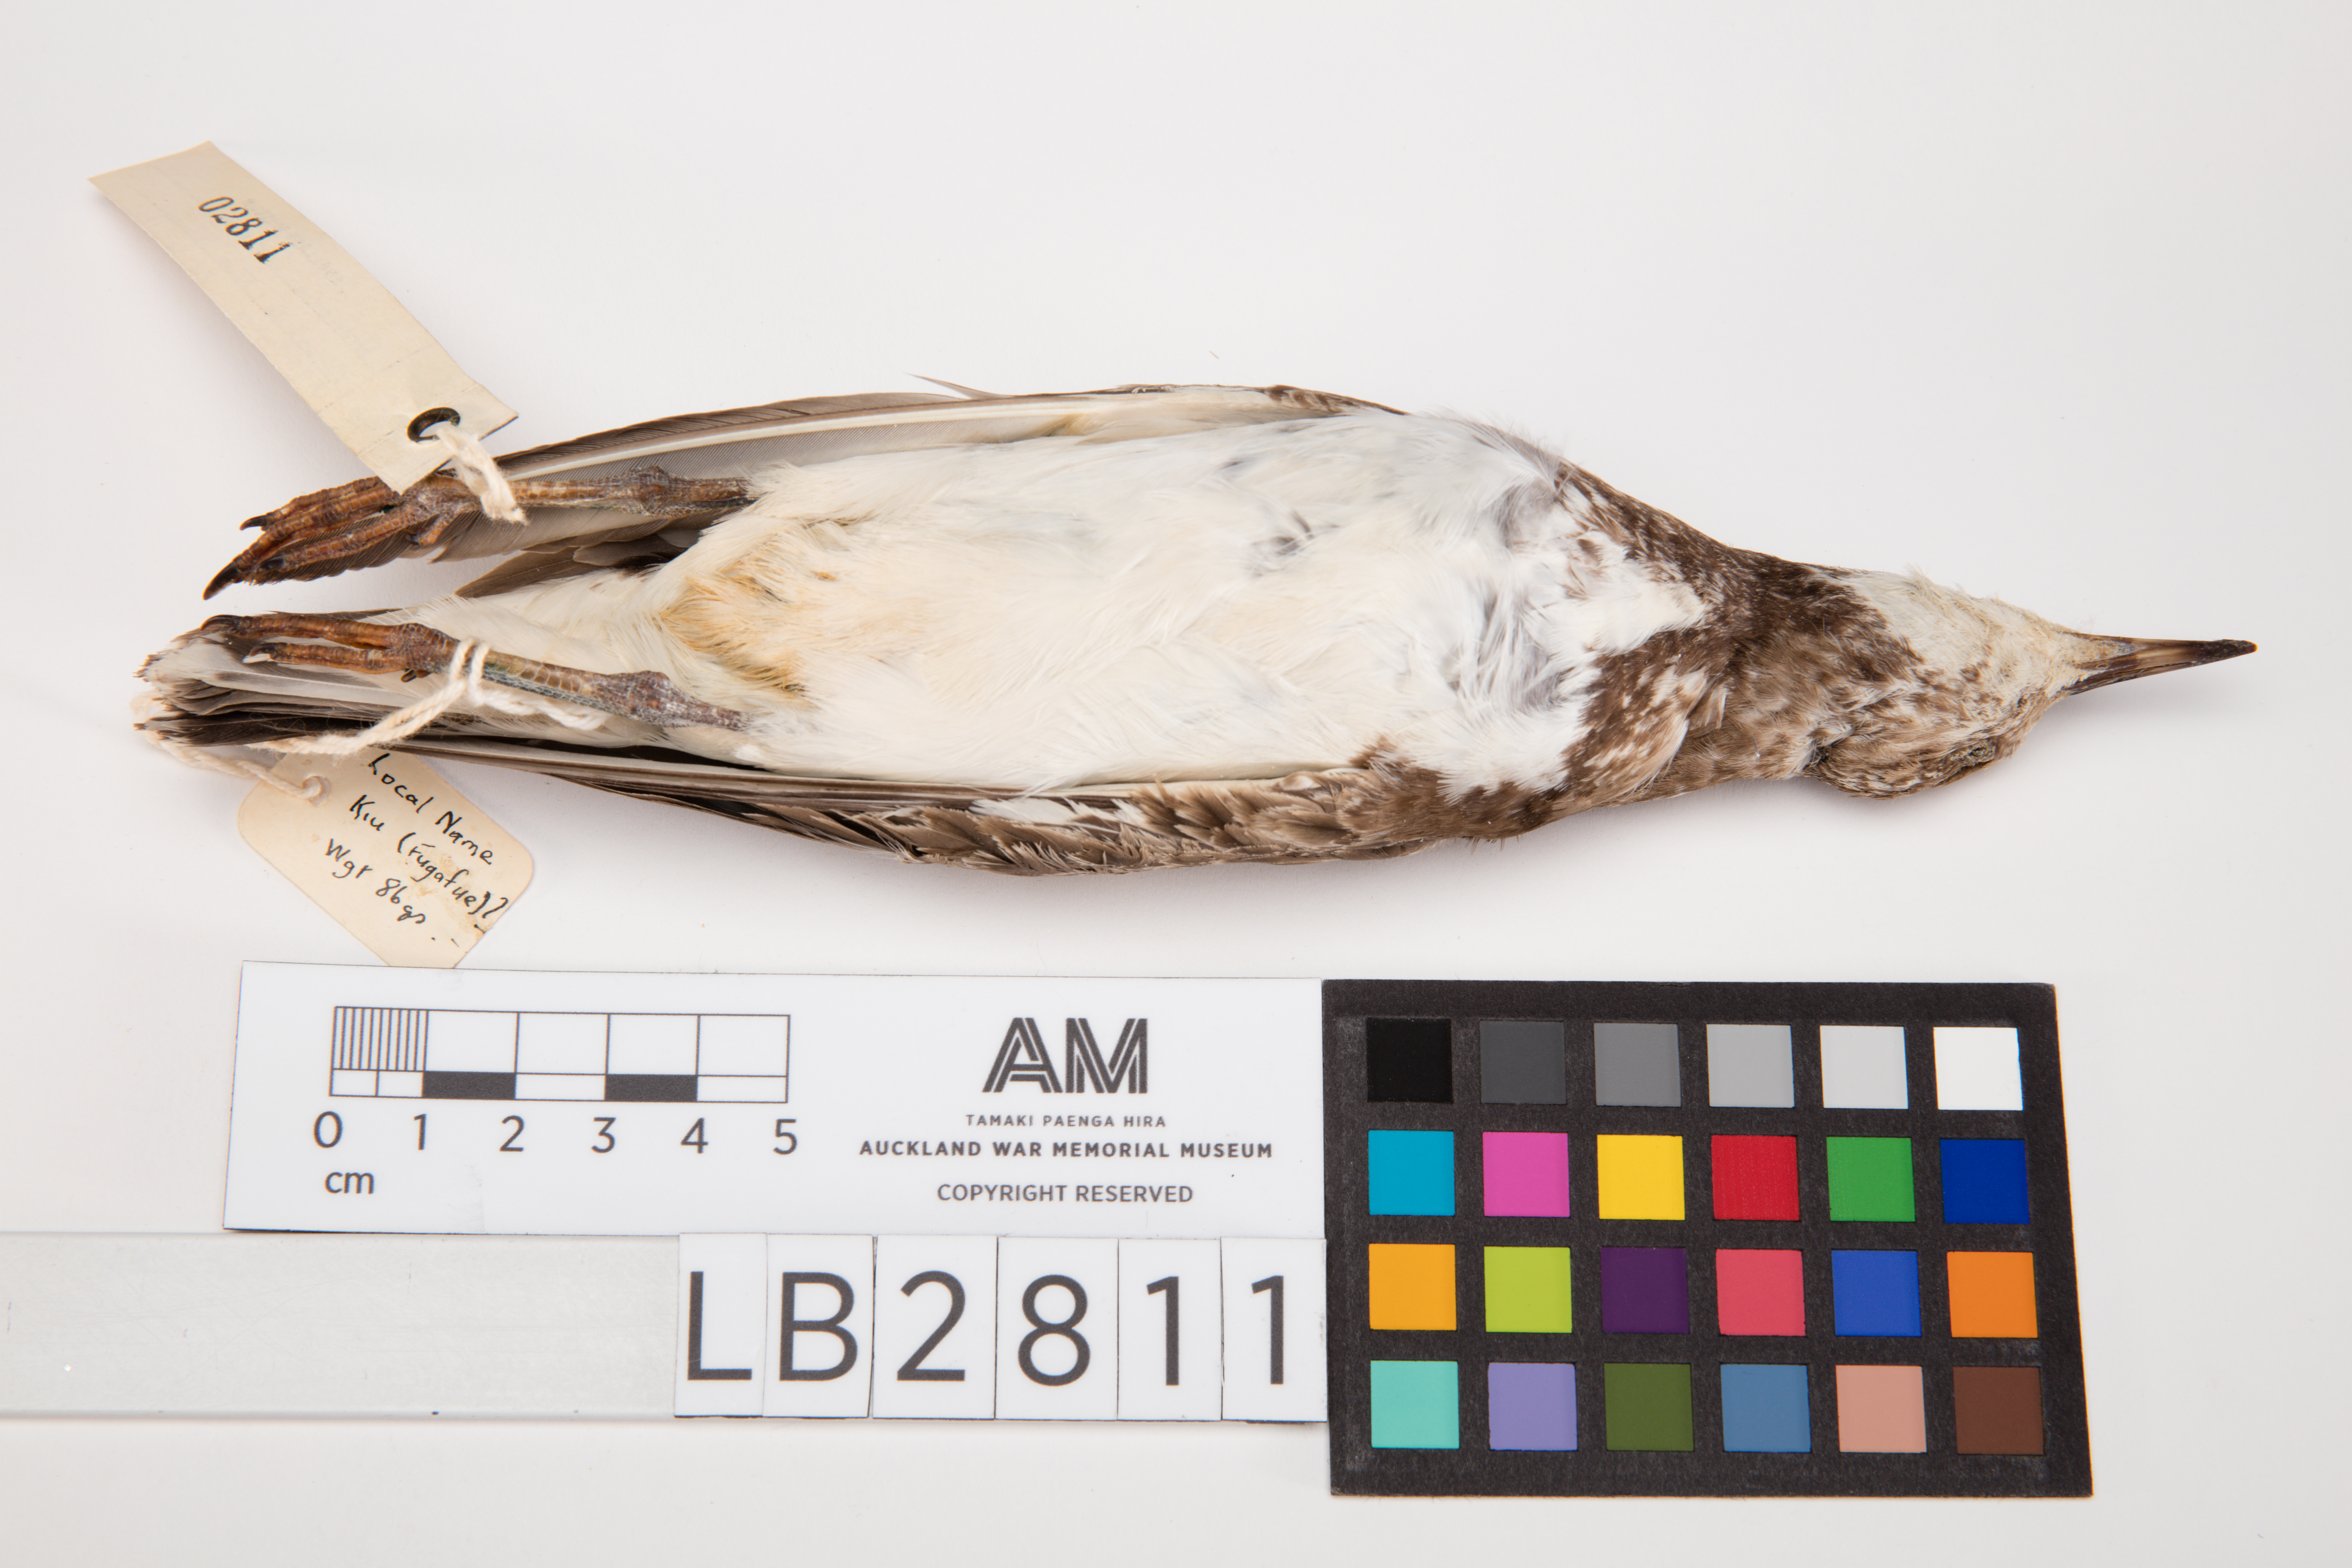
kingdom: Animalia
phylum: Chordata
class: Aves
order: Charadriiformes
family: Scolopacidae
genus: Arenaria
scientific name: Arenaria interpres
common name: Ruddy turnstone
